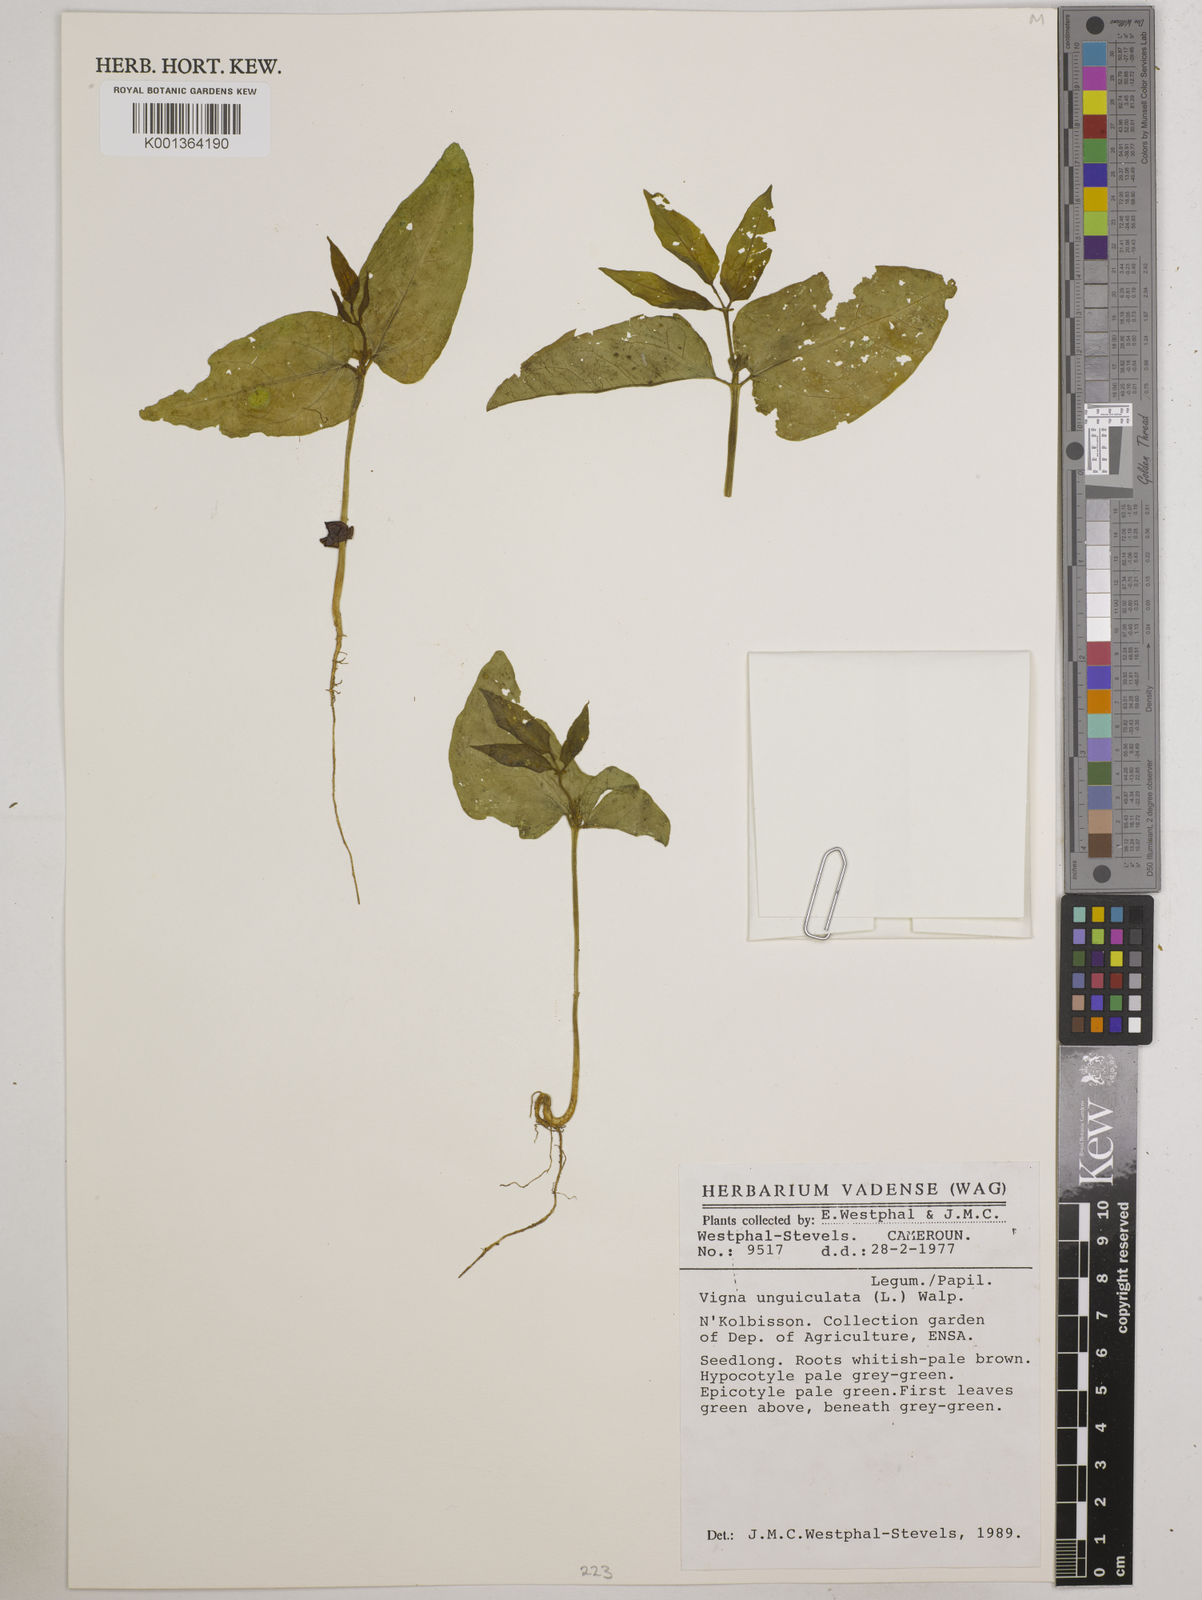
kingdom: Plantae
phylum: Tracheophyta
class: Magnoliopsida
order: Fabales
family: Fabaceae
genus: Vigna
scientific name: Vigna unguiculata
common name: Cowpea
